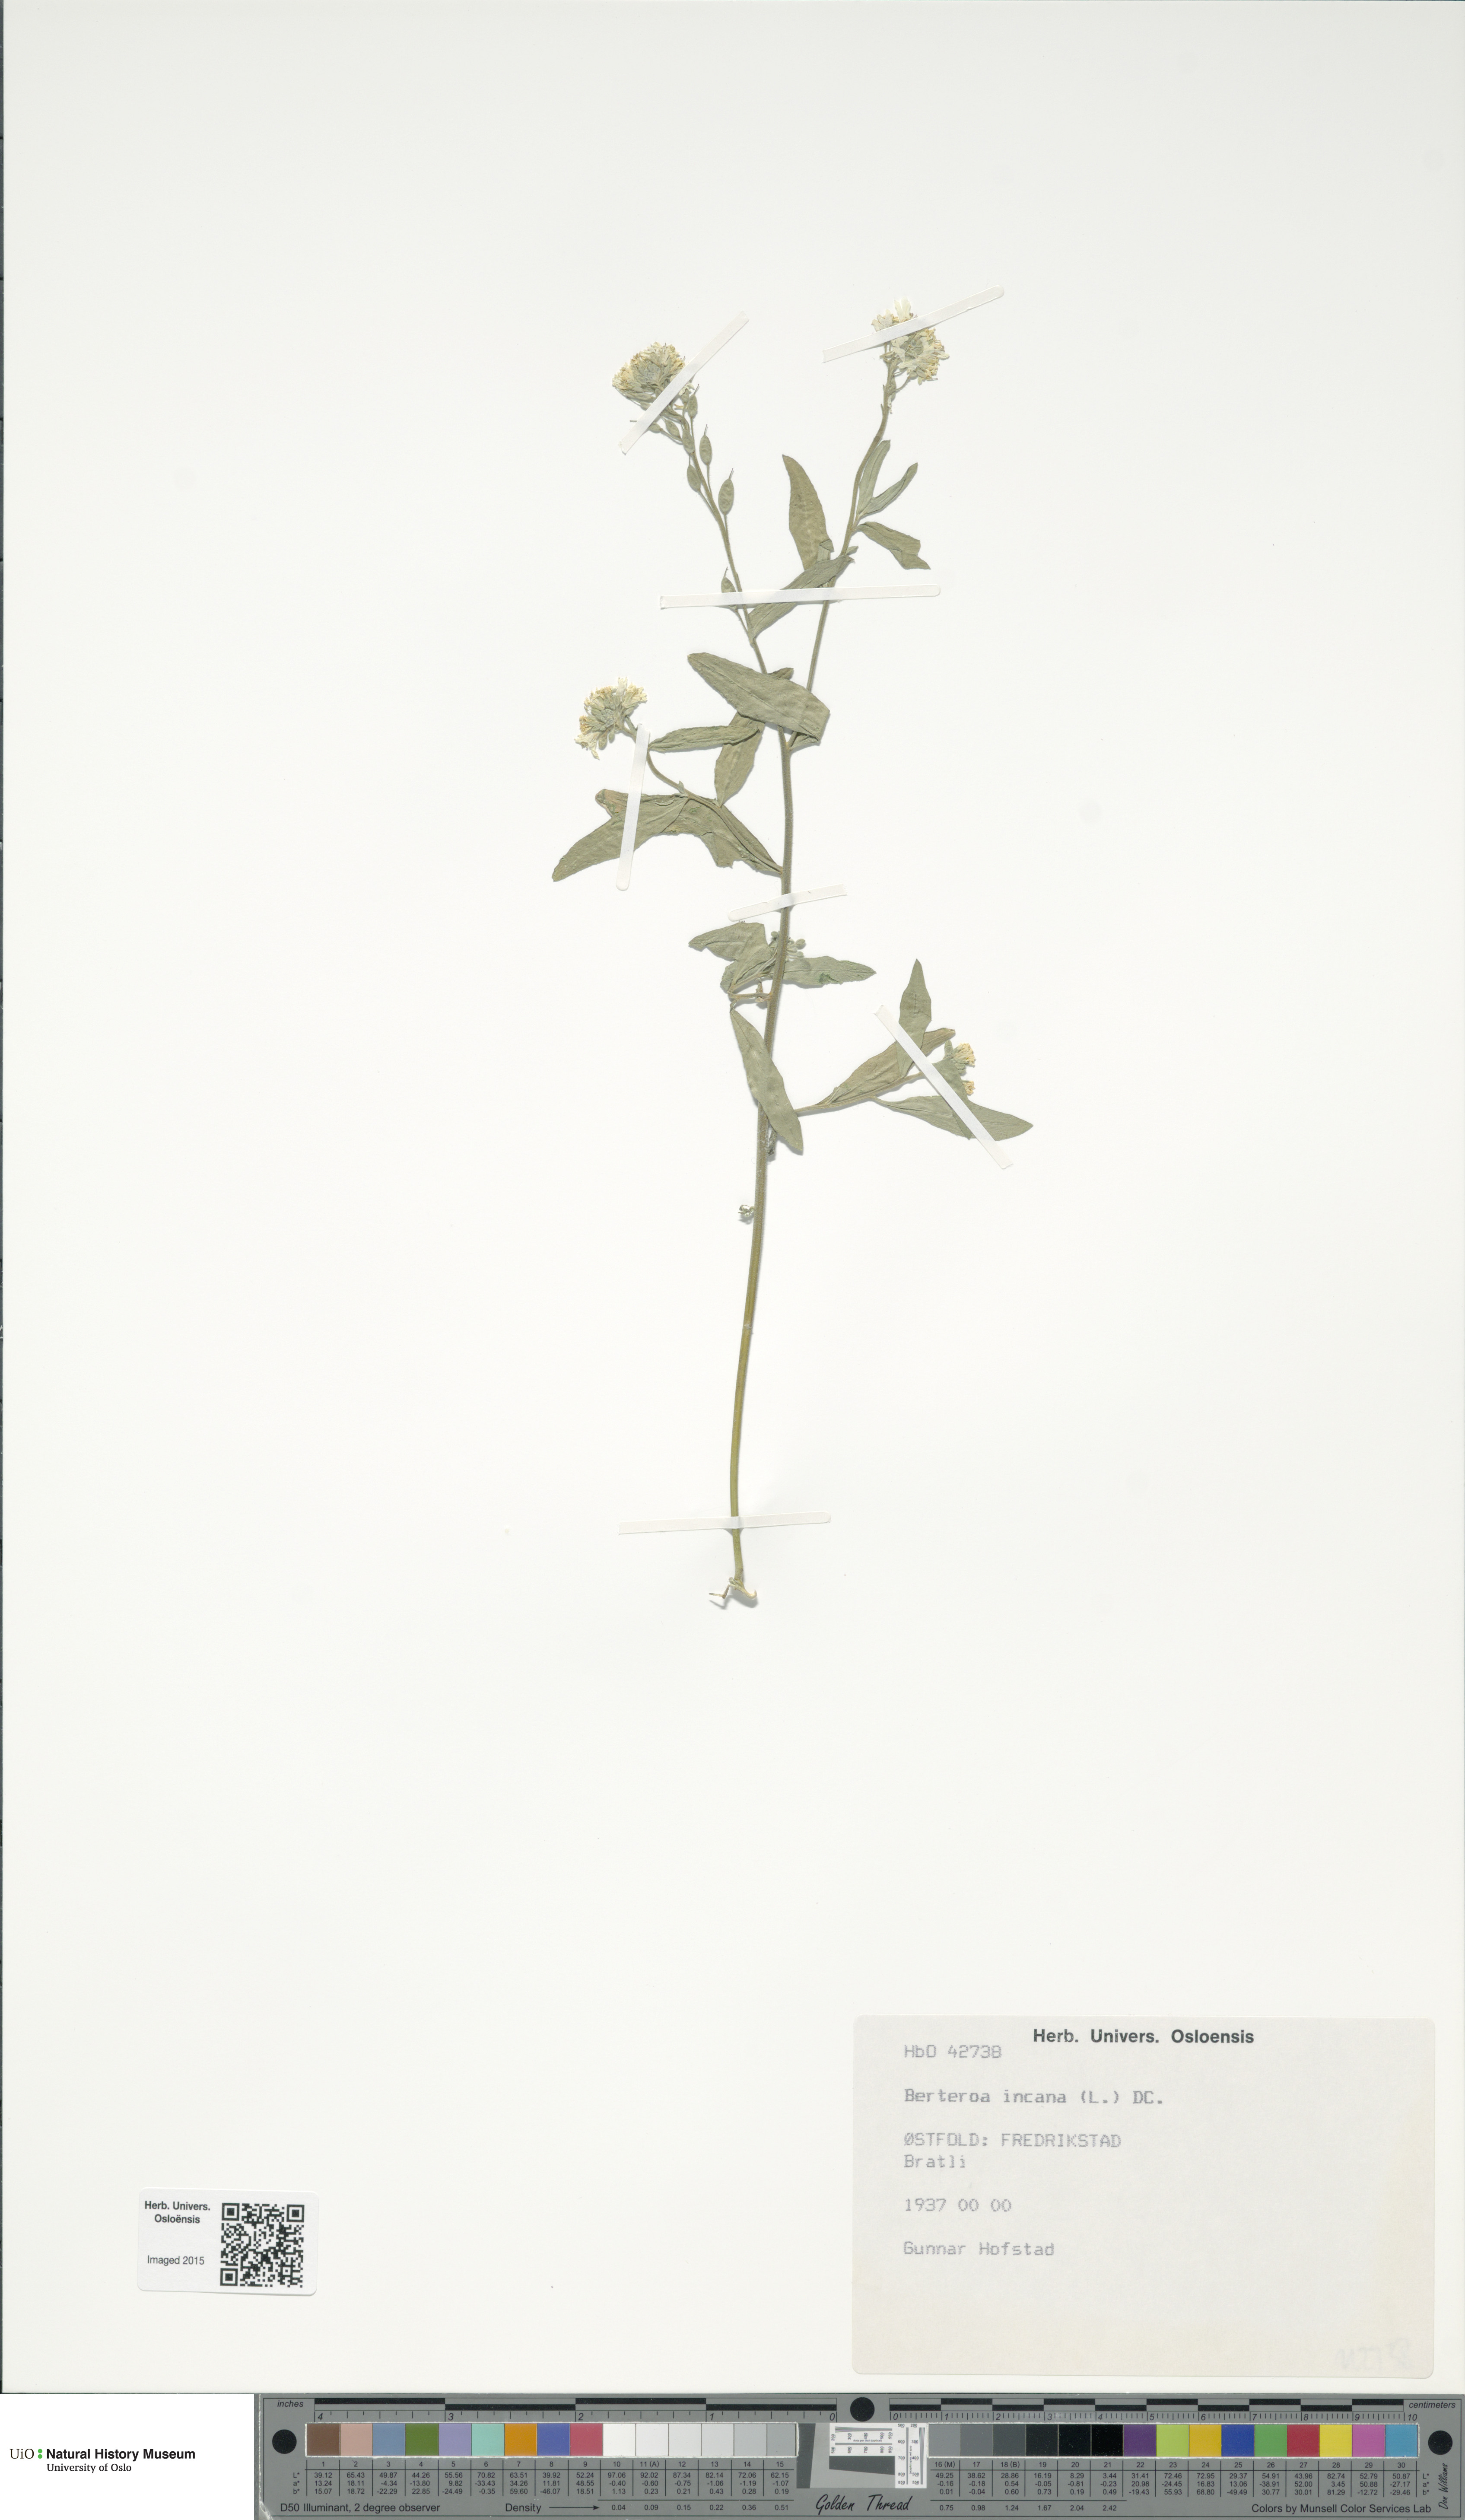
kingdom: Plantae
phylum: Tracheophyta
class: Magnoliopsida
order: Brassicales
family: Brassicaceae
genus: Berteroa
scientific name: Berteroa incana
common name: Hoary alison
